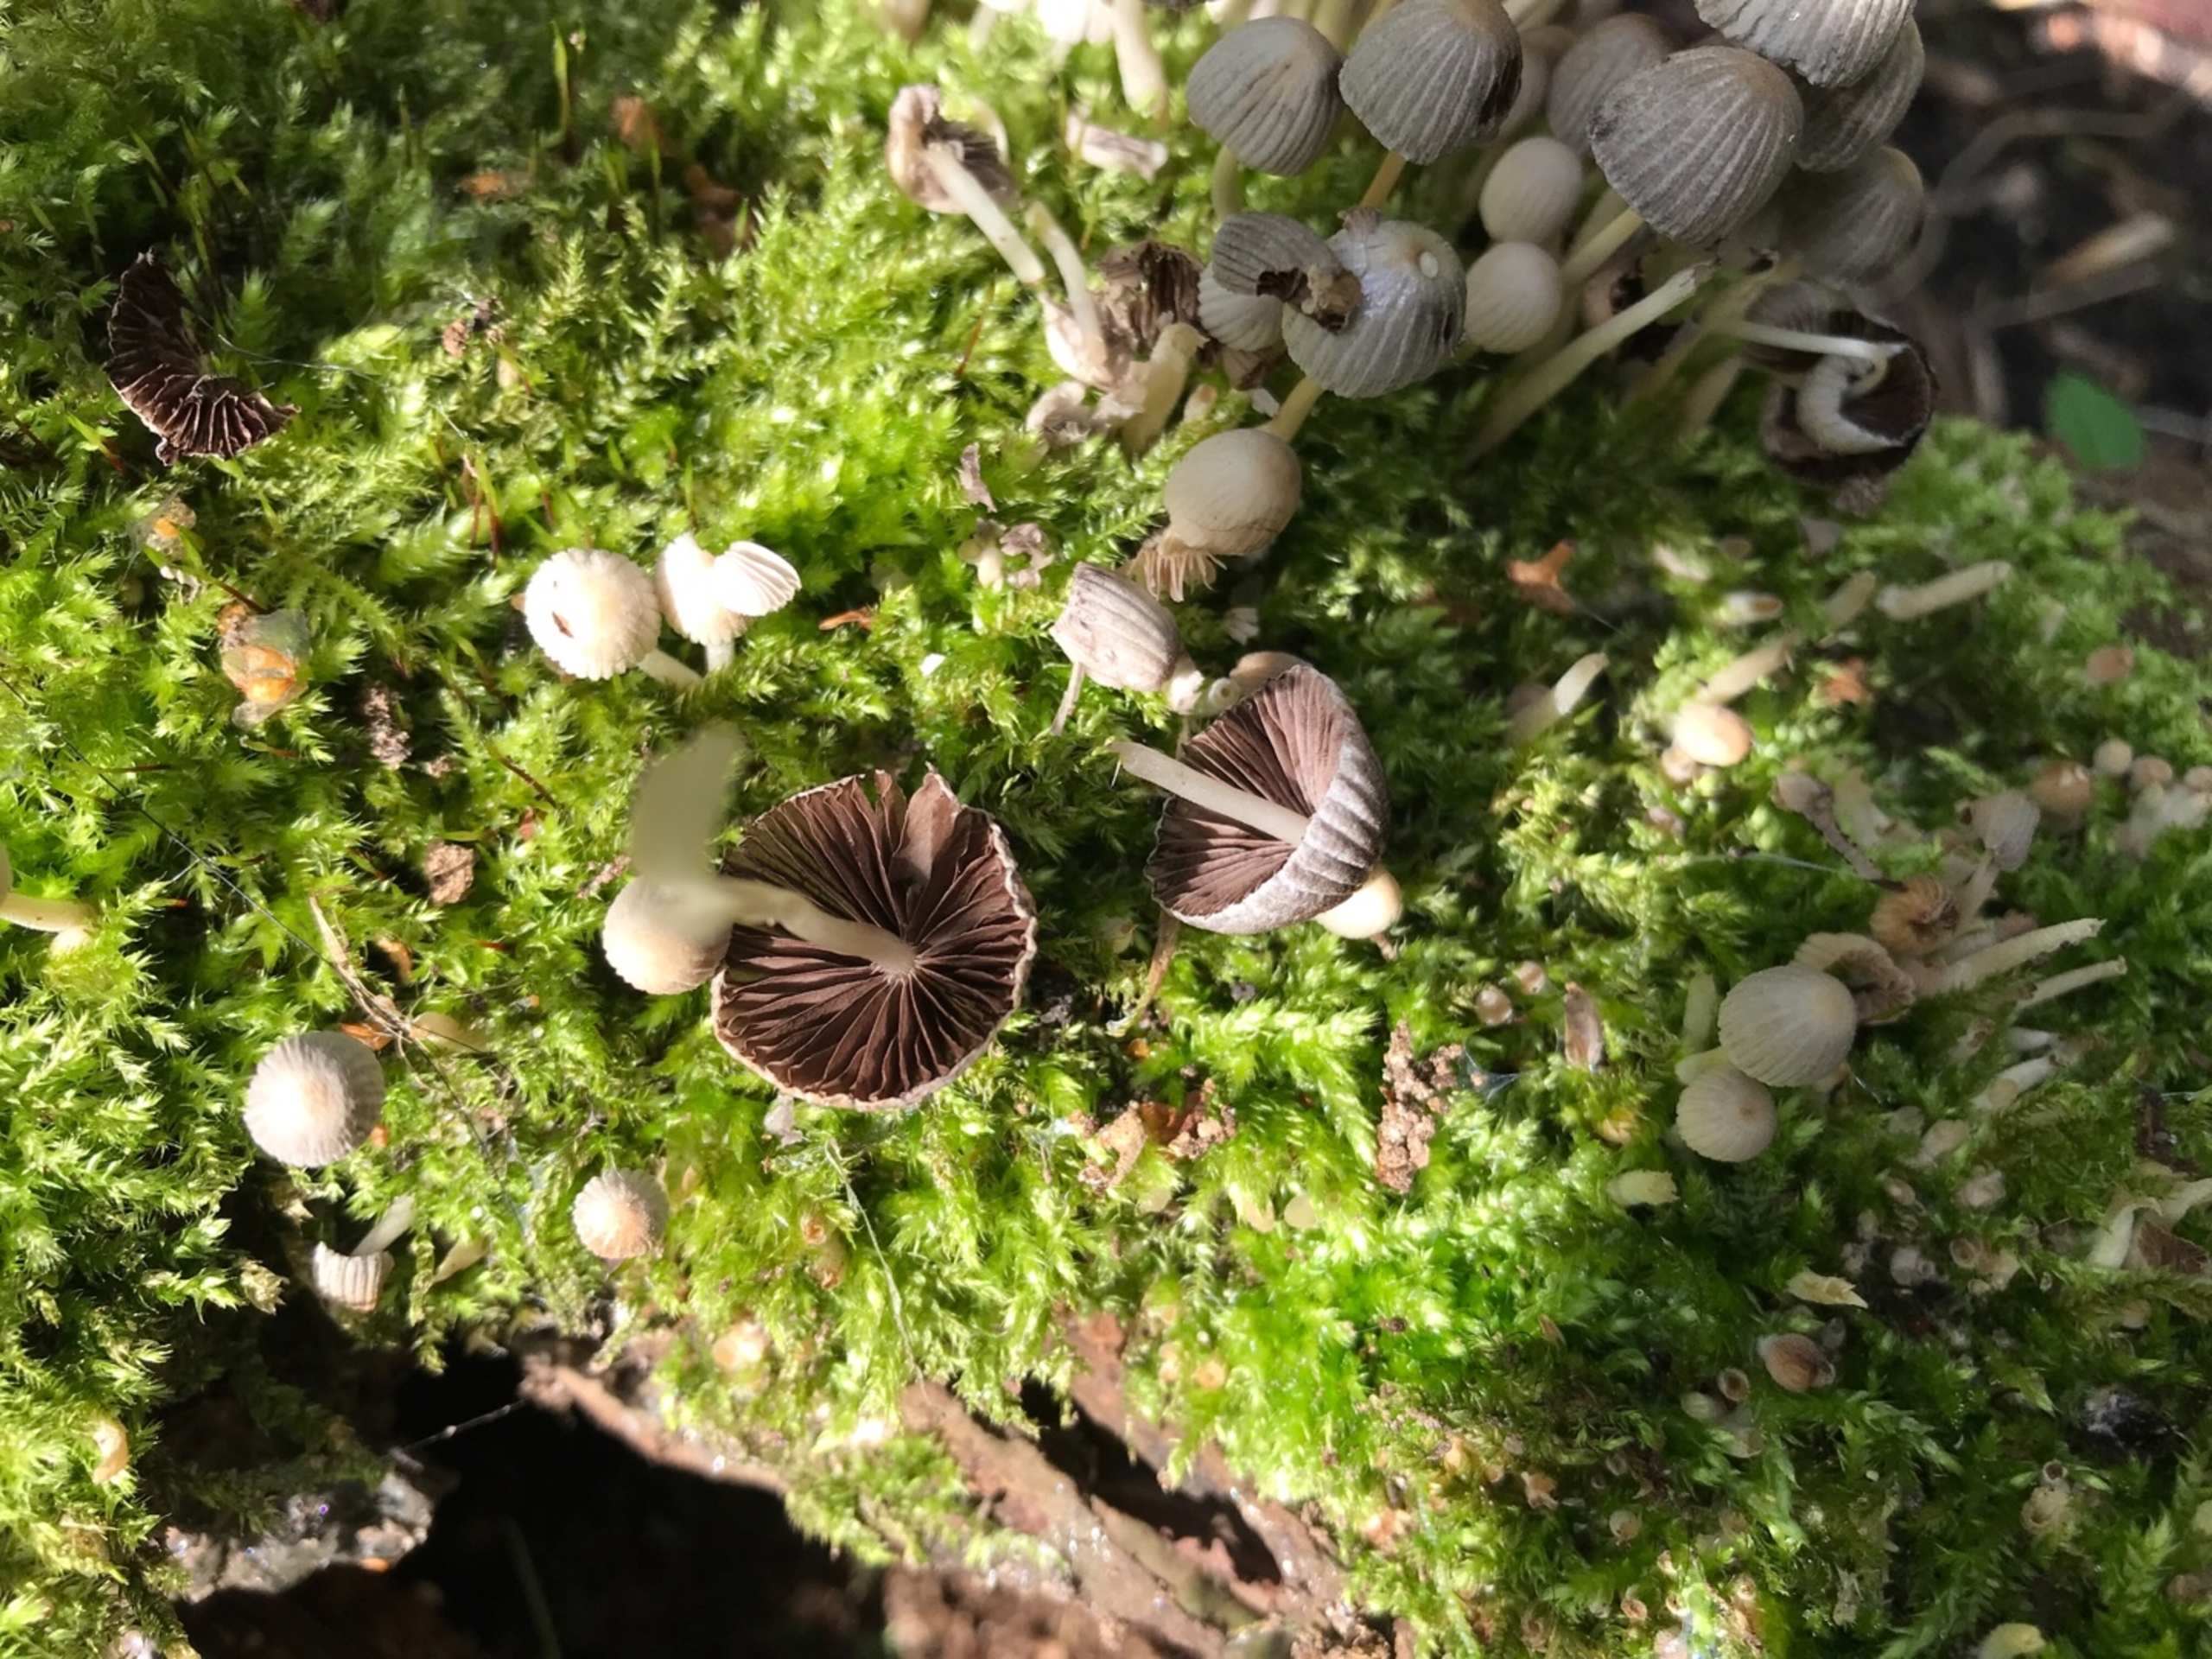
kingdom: Fungi
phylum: Basidiomycota
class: Agaricomycetes
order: Agaricales
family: Psathyrellaceae
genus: Coprinellus
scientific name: Coprinellus disseminatus
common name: Bredsået blækhat
